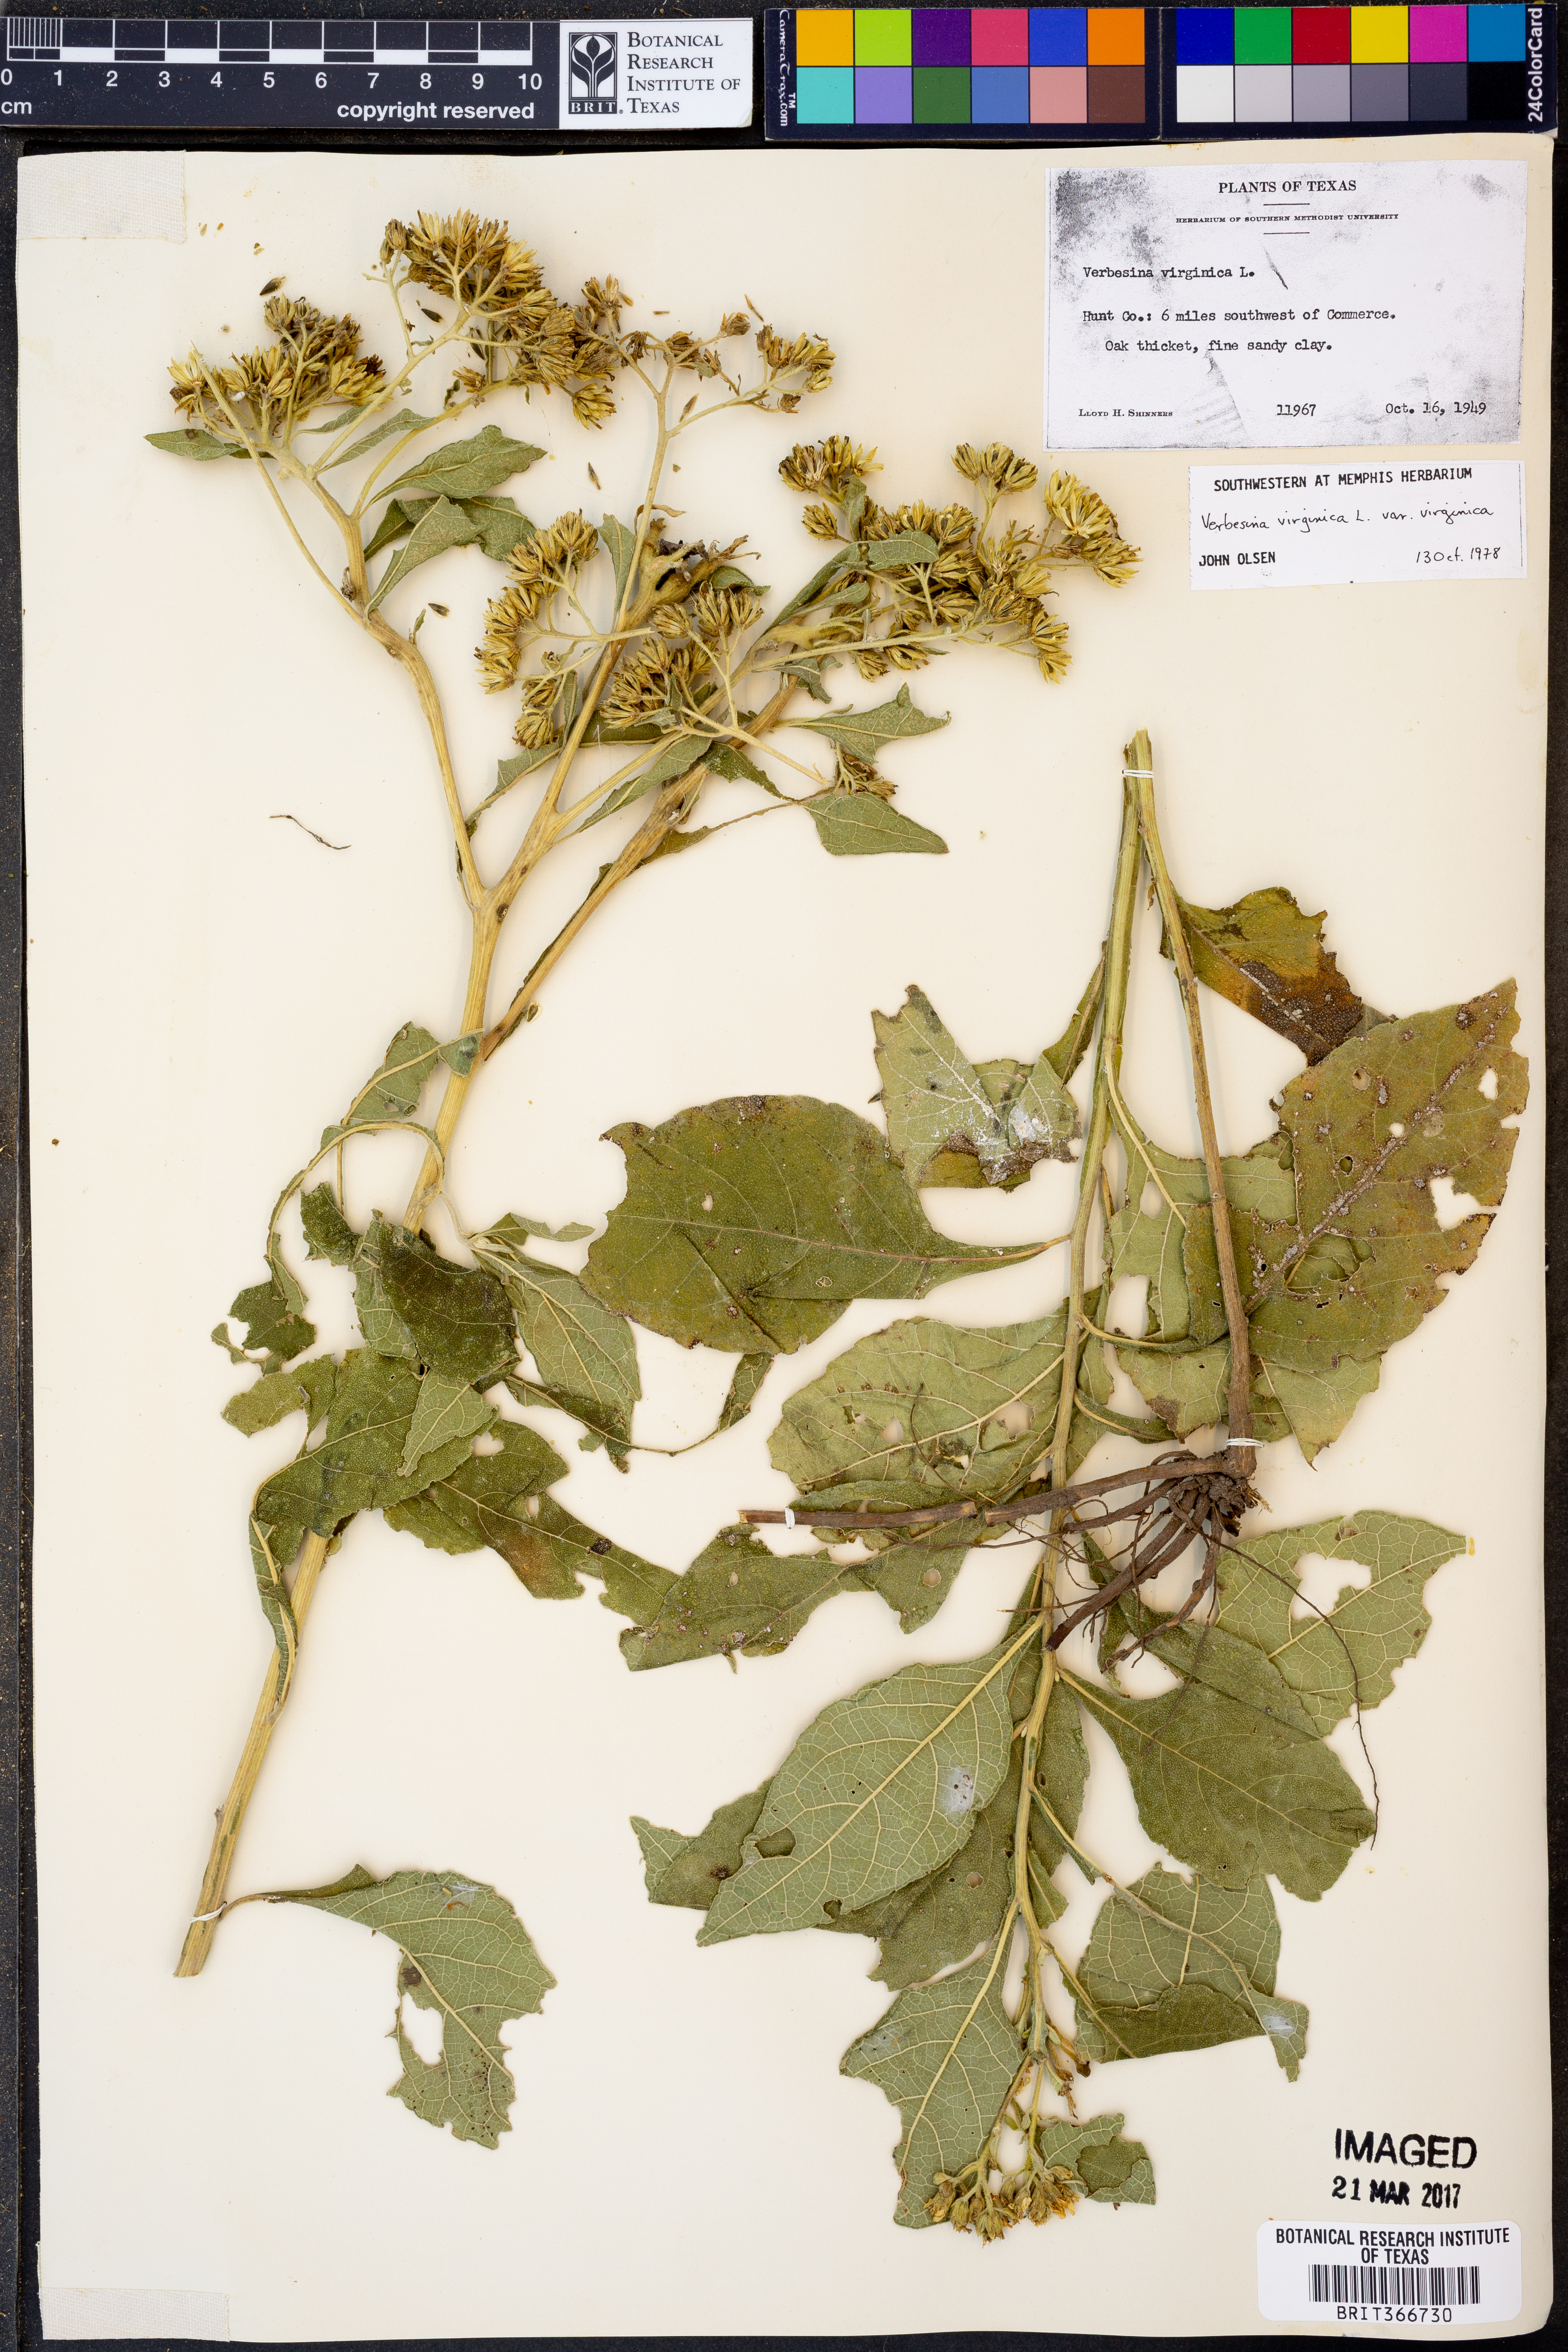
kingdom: Plantae
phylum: Tracheophyta
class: Magnoliopsida
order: Asterales
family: Asteraceae
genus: Verbesina
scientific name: Verbesina virginica
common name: Frostweed
